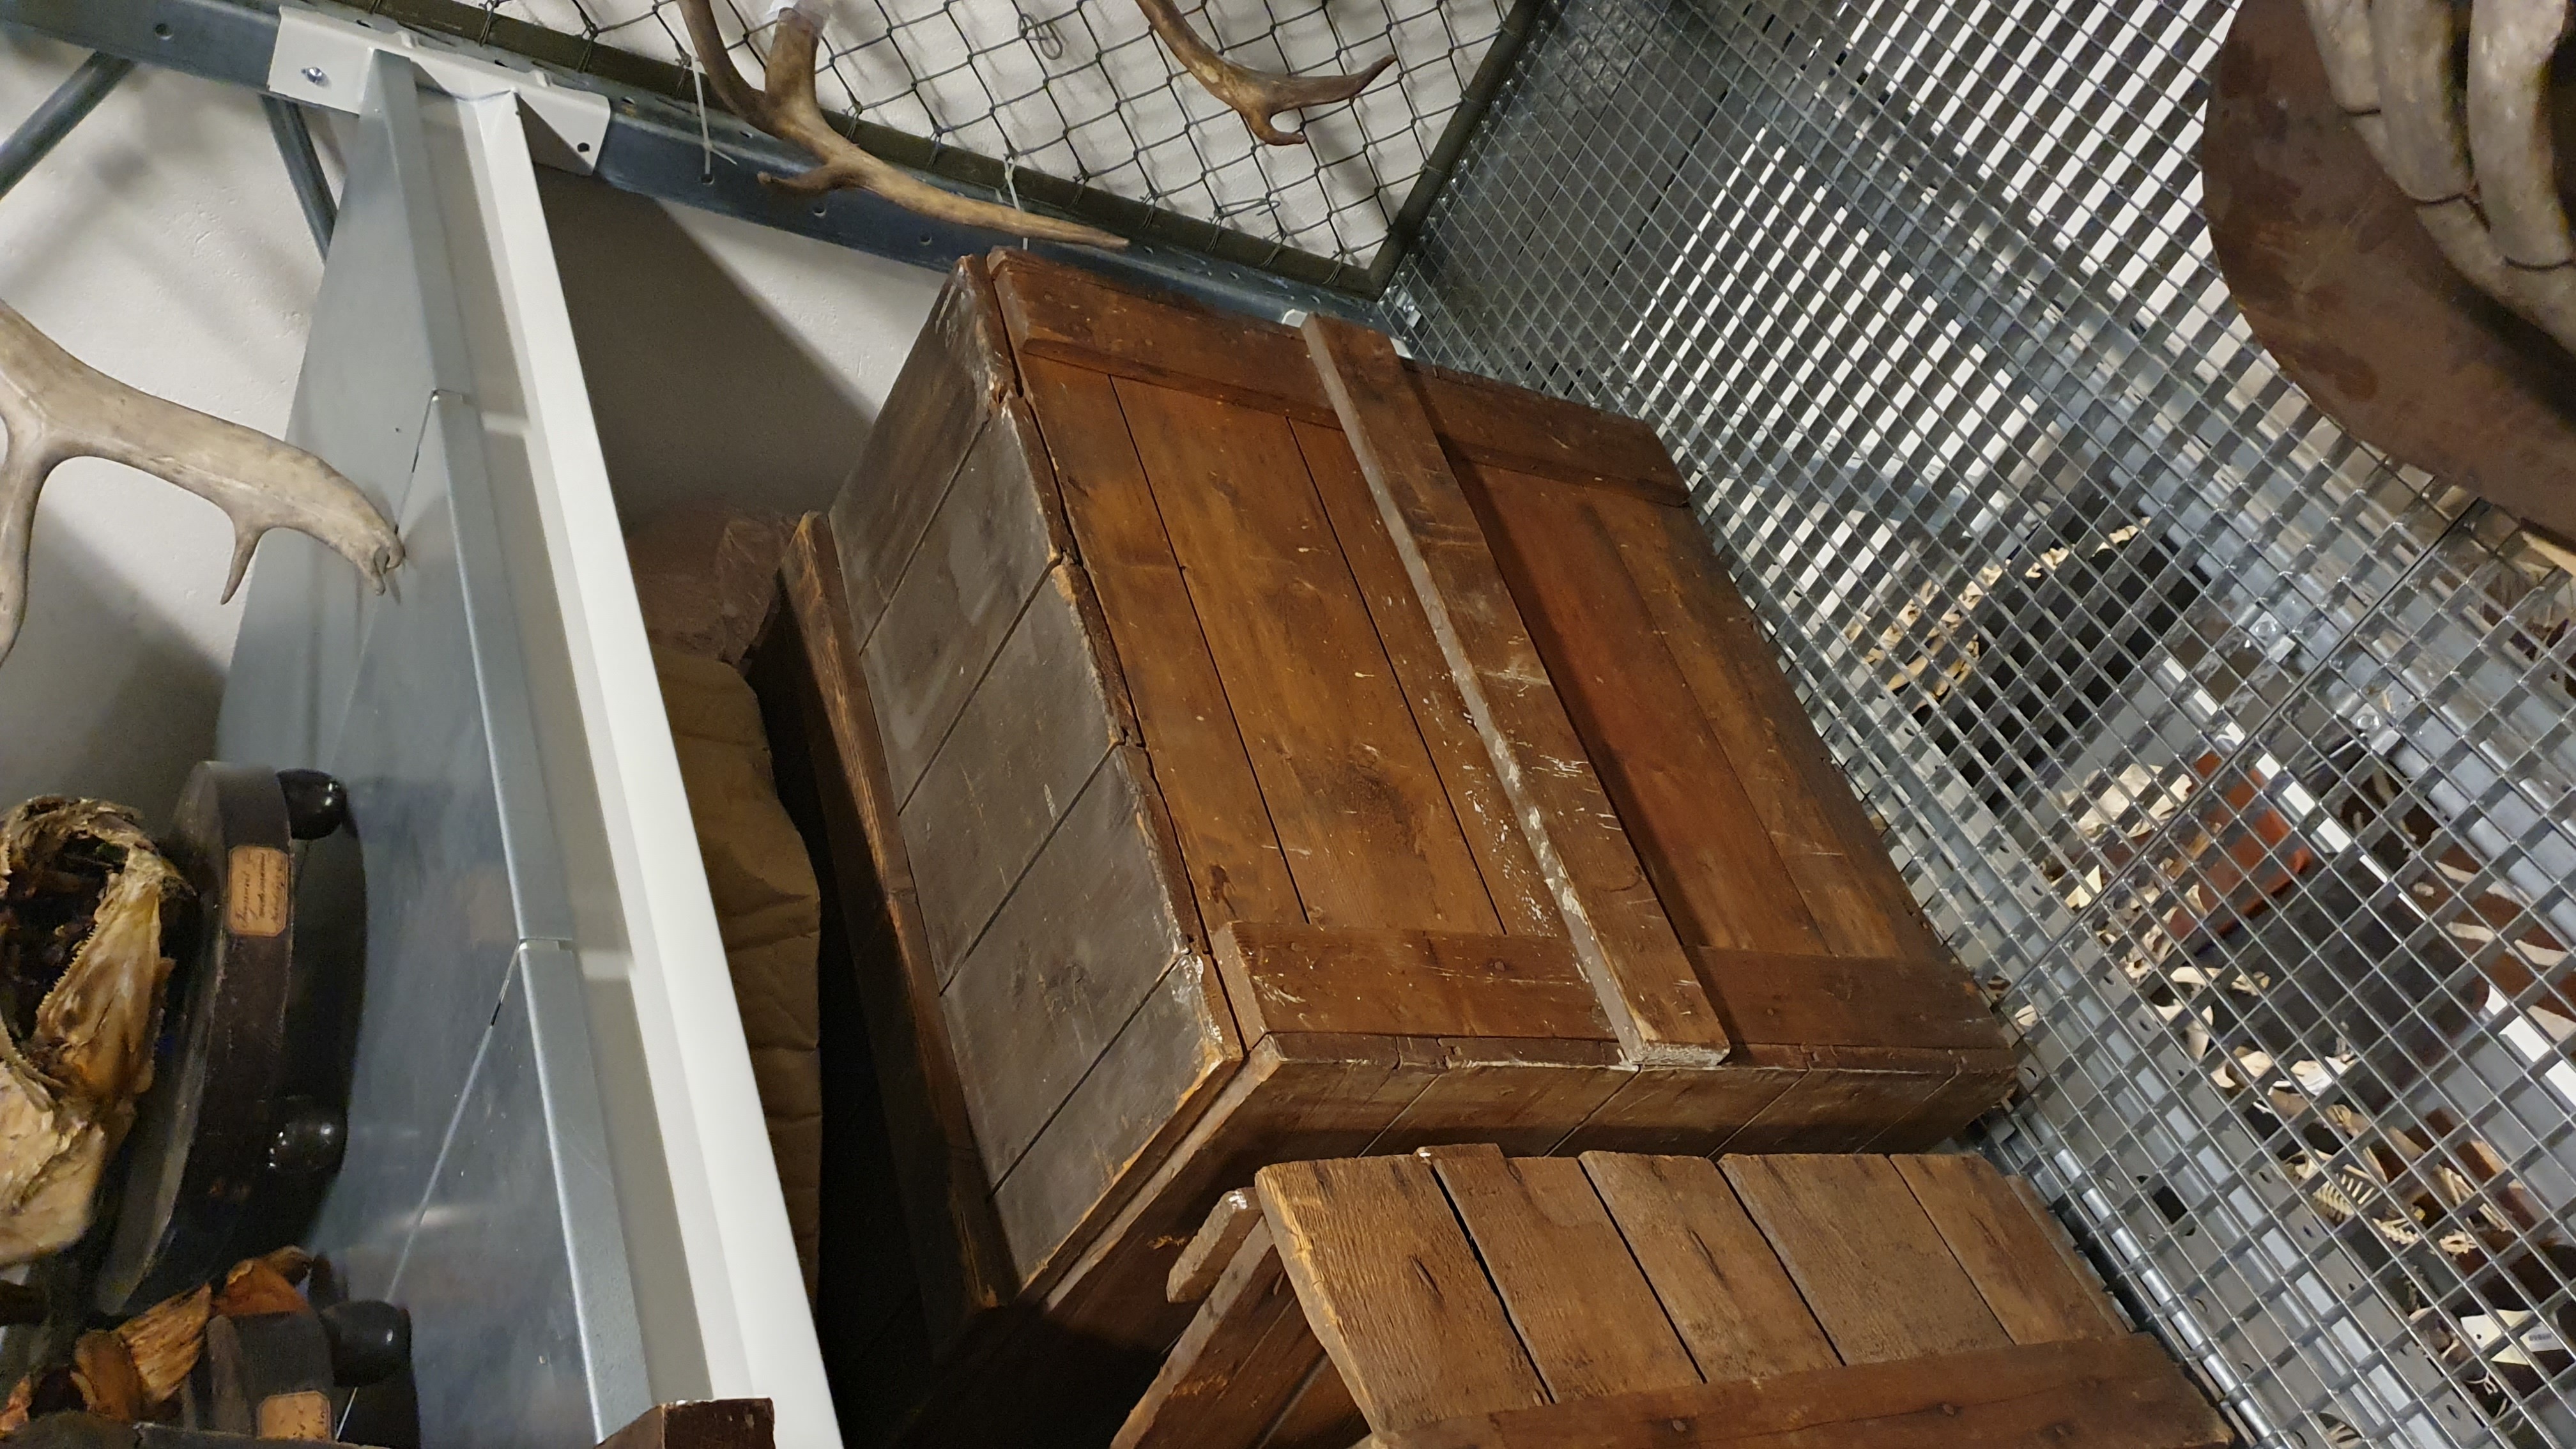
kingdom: Animalia
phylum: Chordata
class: Mammalia
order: Artiodactyla
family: Bovidae
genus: Bison
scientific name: Bison bonasus
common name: European bison
